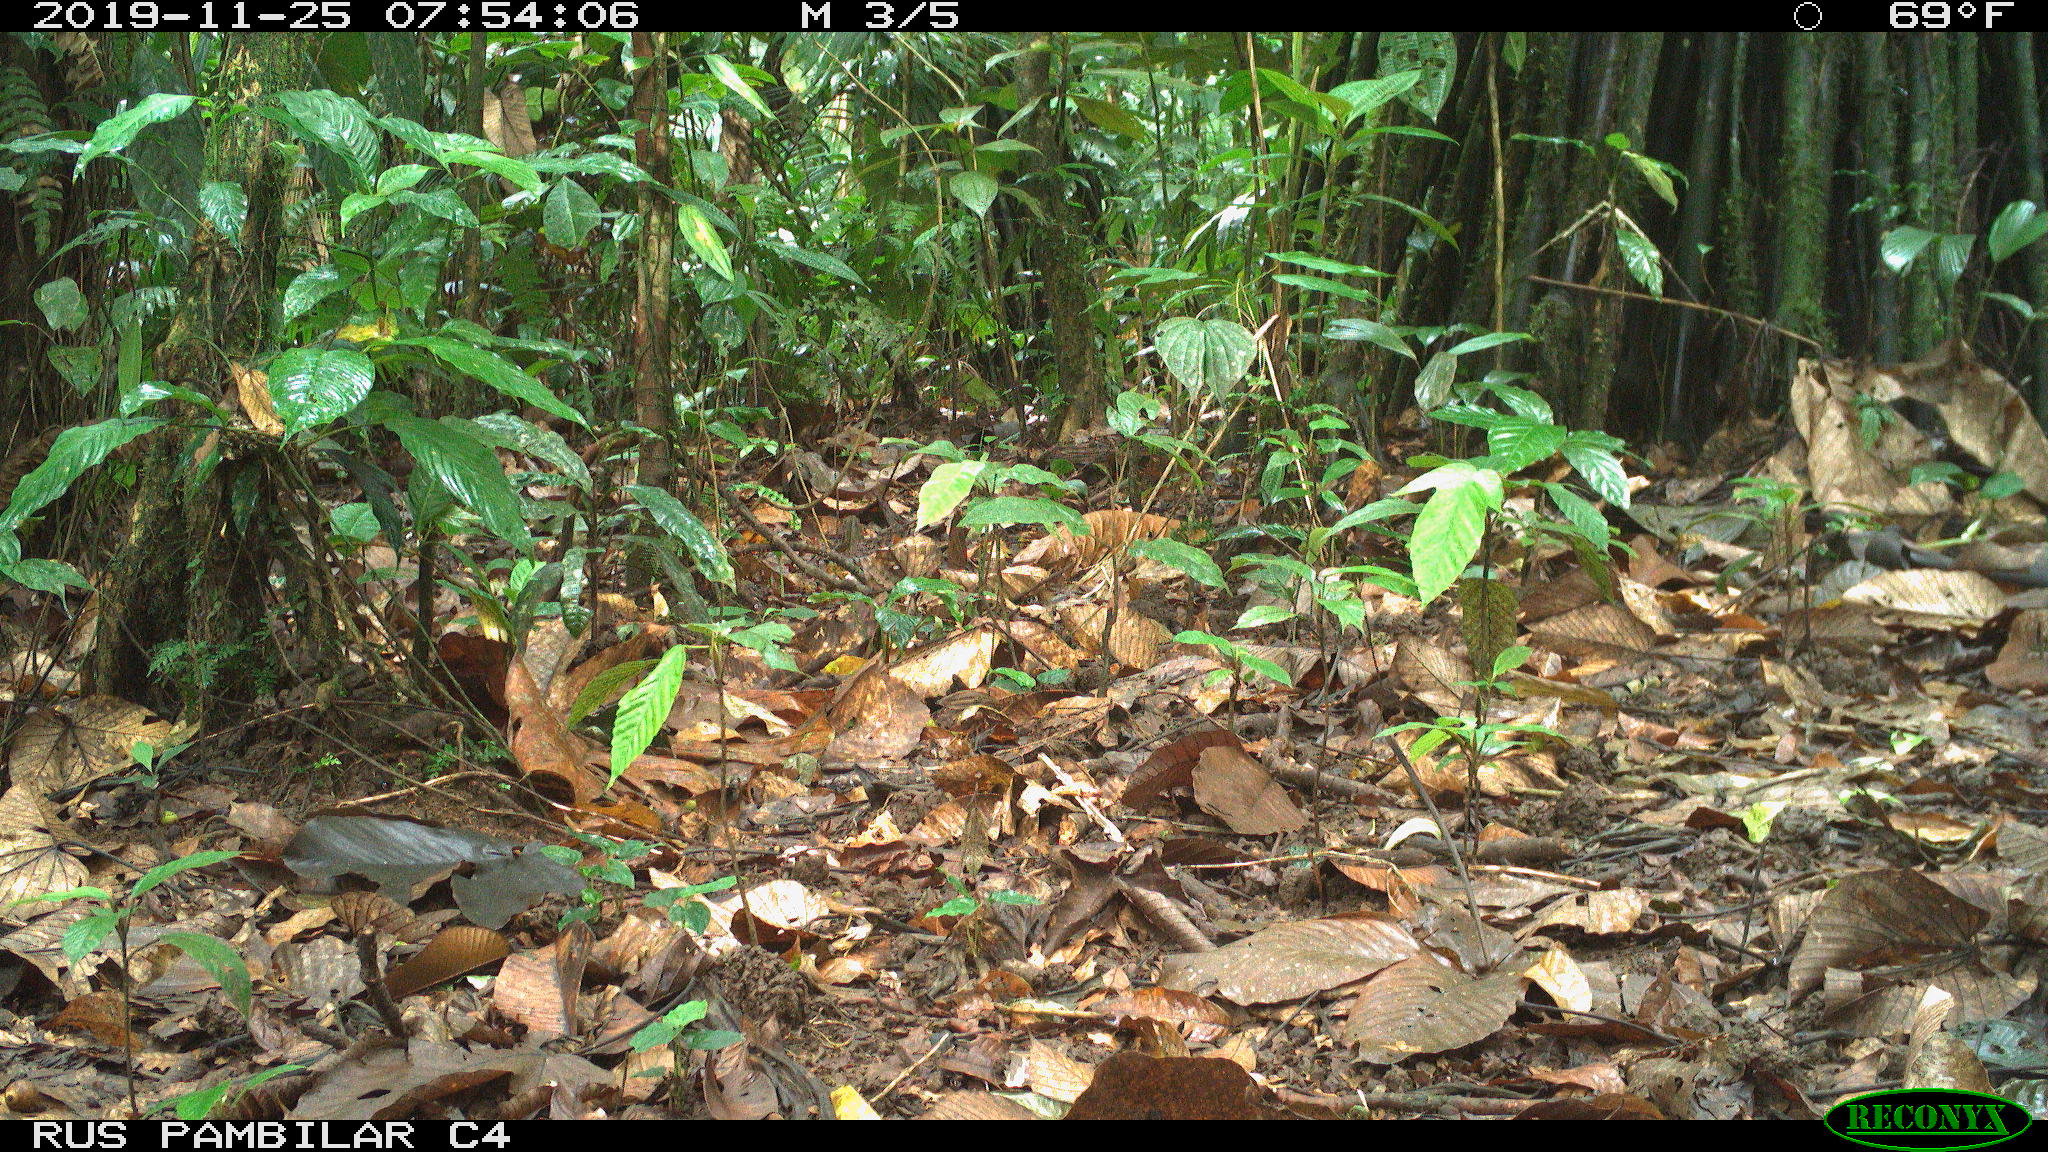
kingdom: Animalia
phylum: Chordata
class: Mammalia
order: Rodentia
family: Dasyproctidae
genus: Dasyprocta
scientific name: Dasyprocta punctata
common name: Central american agouti
